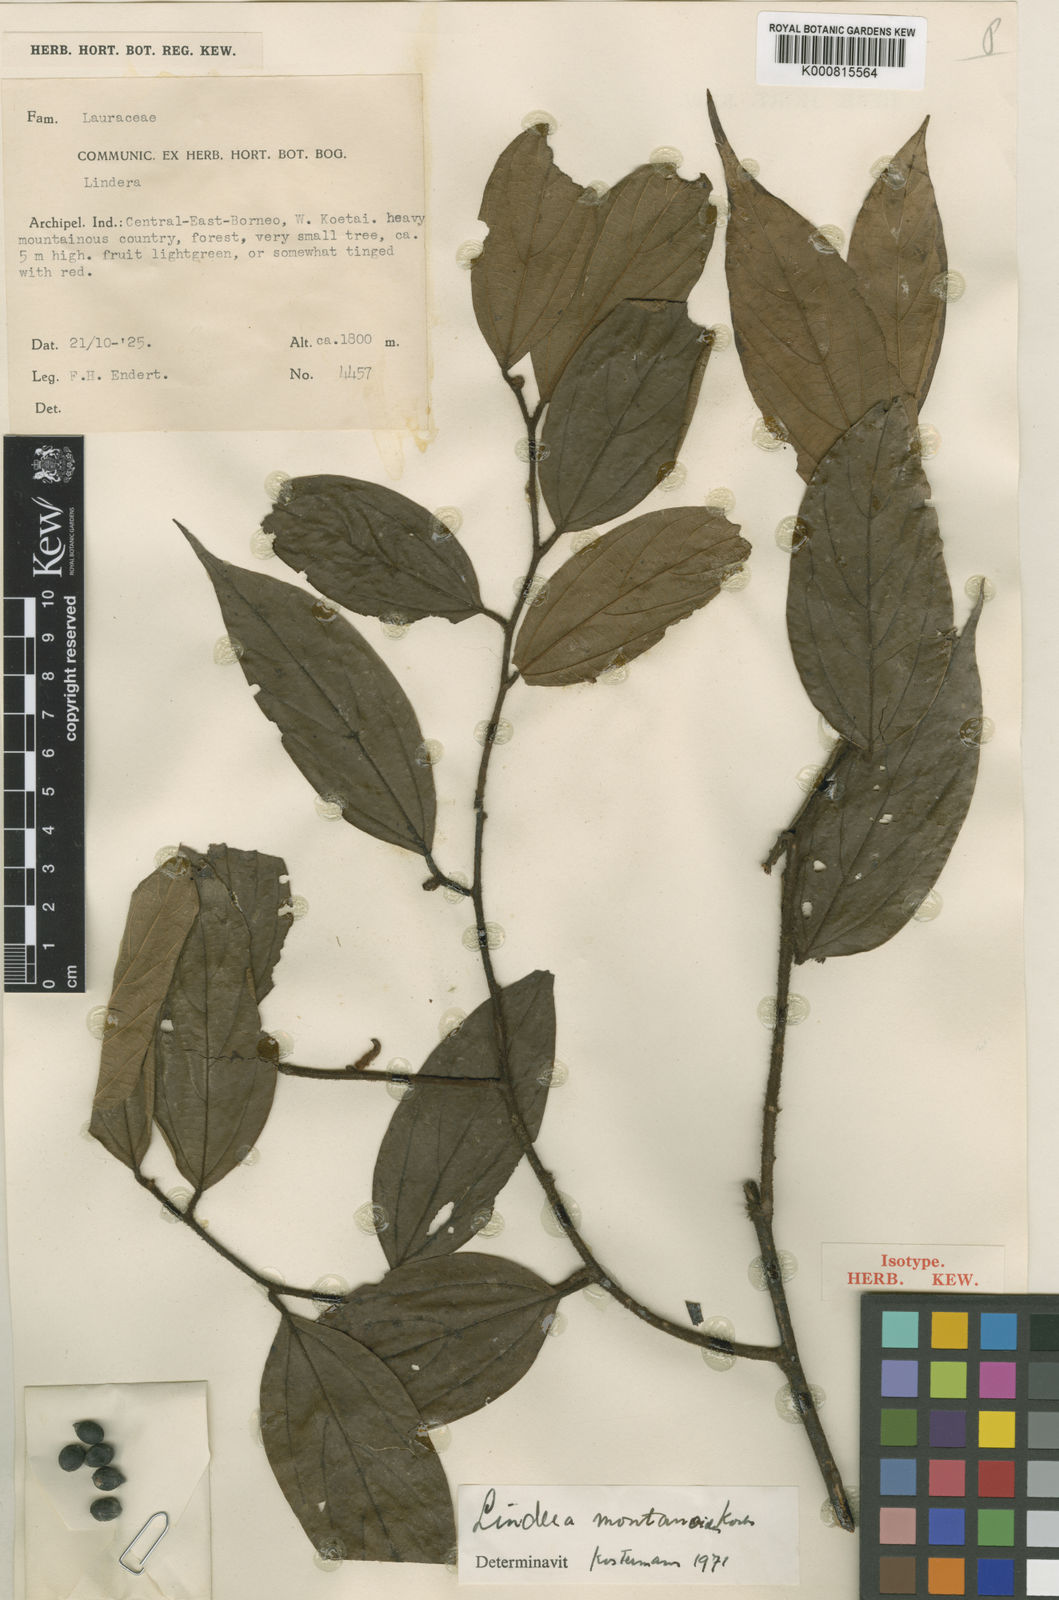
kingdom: Plantae
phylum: Tracheophyta
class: Magnoliopsida
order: Laurales
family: Lauraceae
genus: Lindera
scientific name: Lindera montanoides
